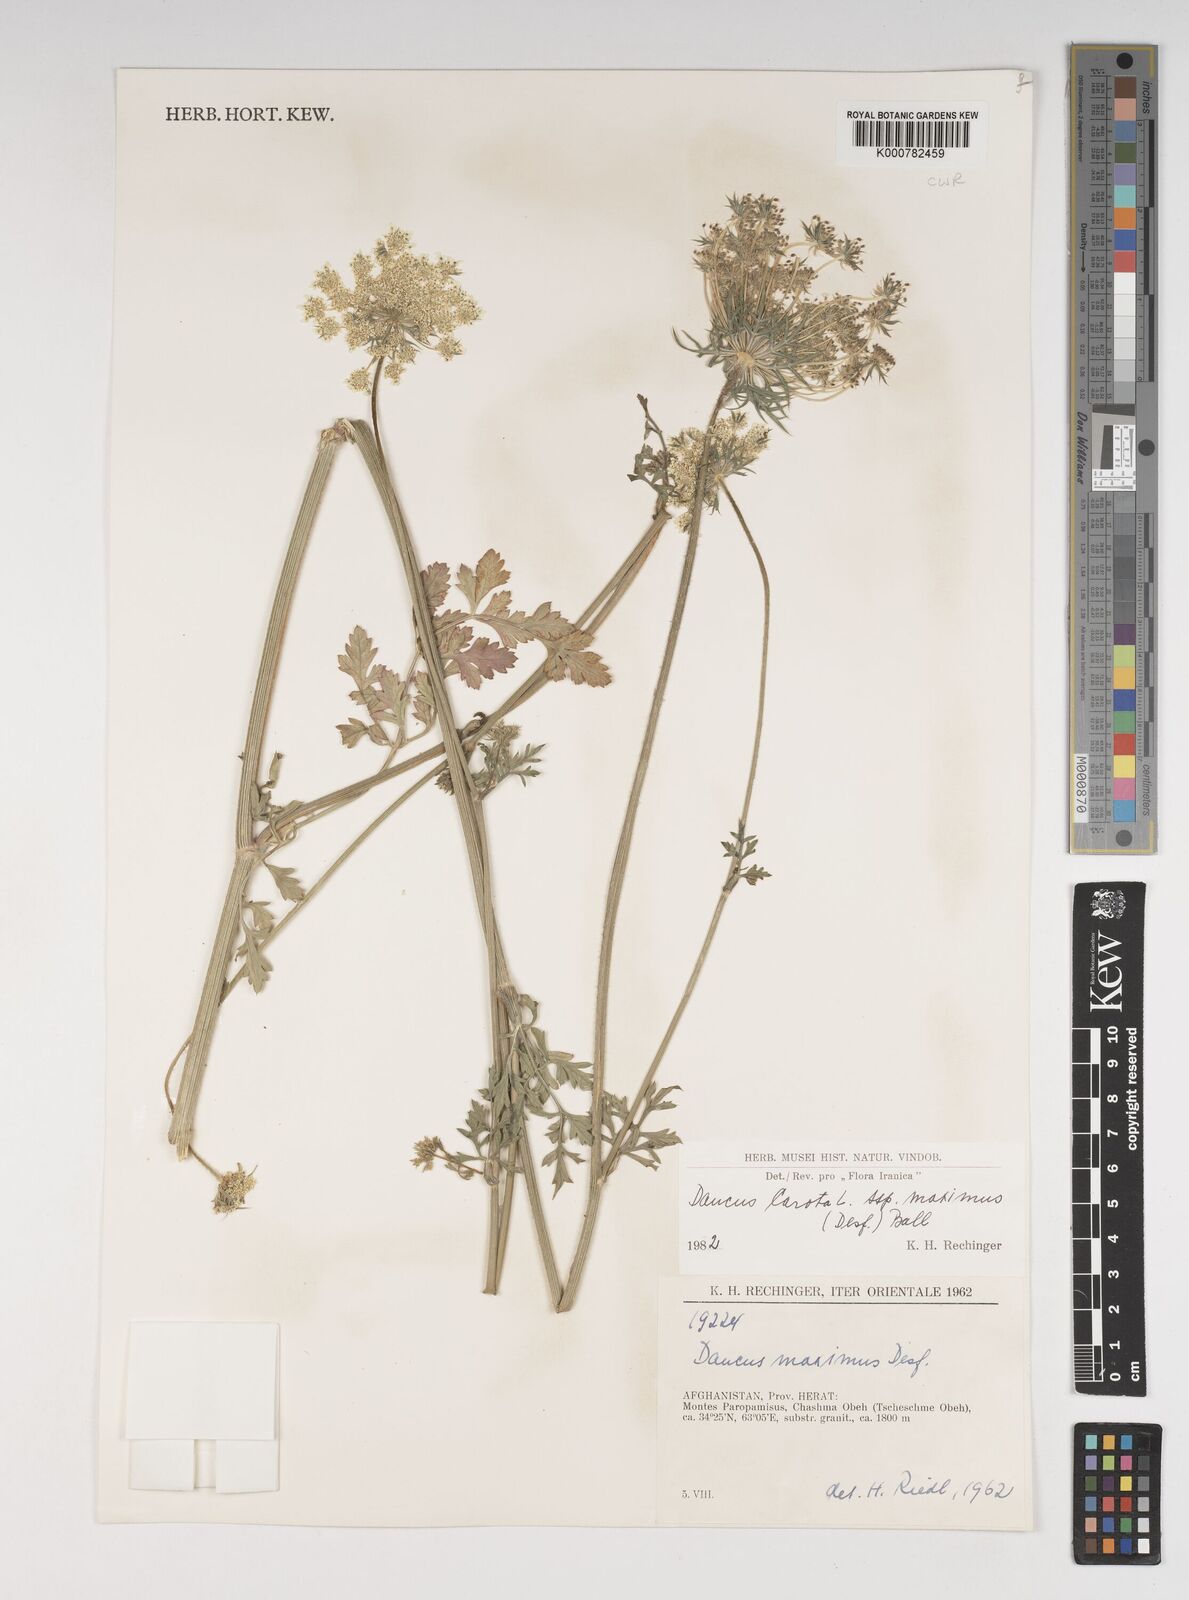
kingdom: Plantae
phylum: Tracheophyta
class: Magnoliopsida
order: Apiales
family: Apiaceae
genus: Daucus
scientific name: Daucus carota
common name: Wild carrot
